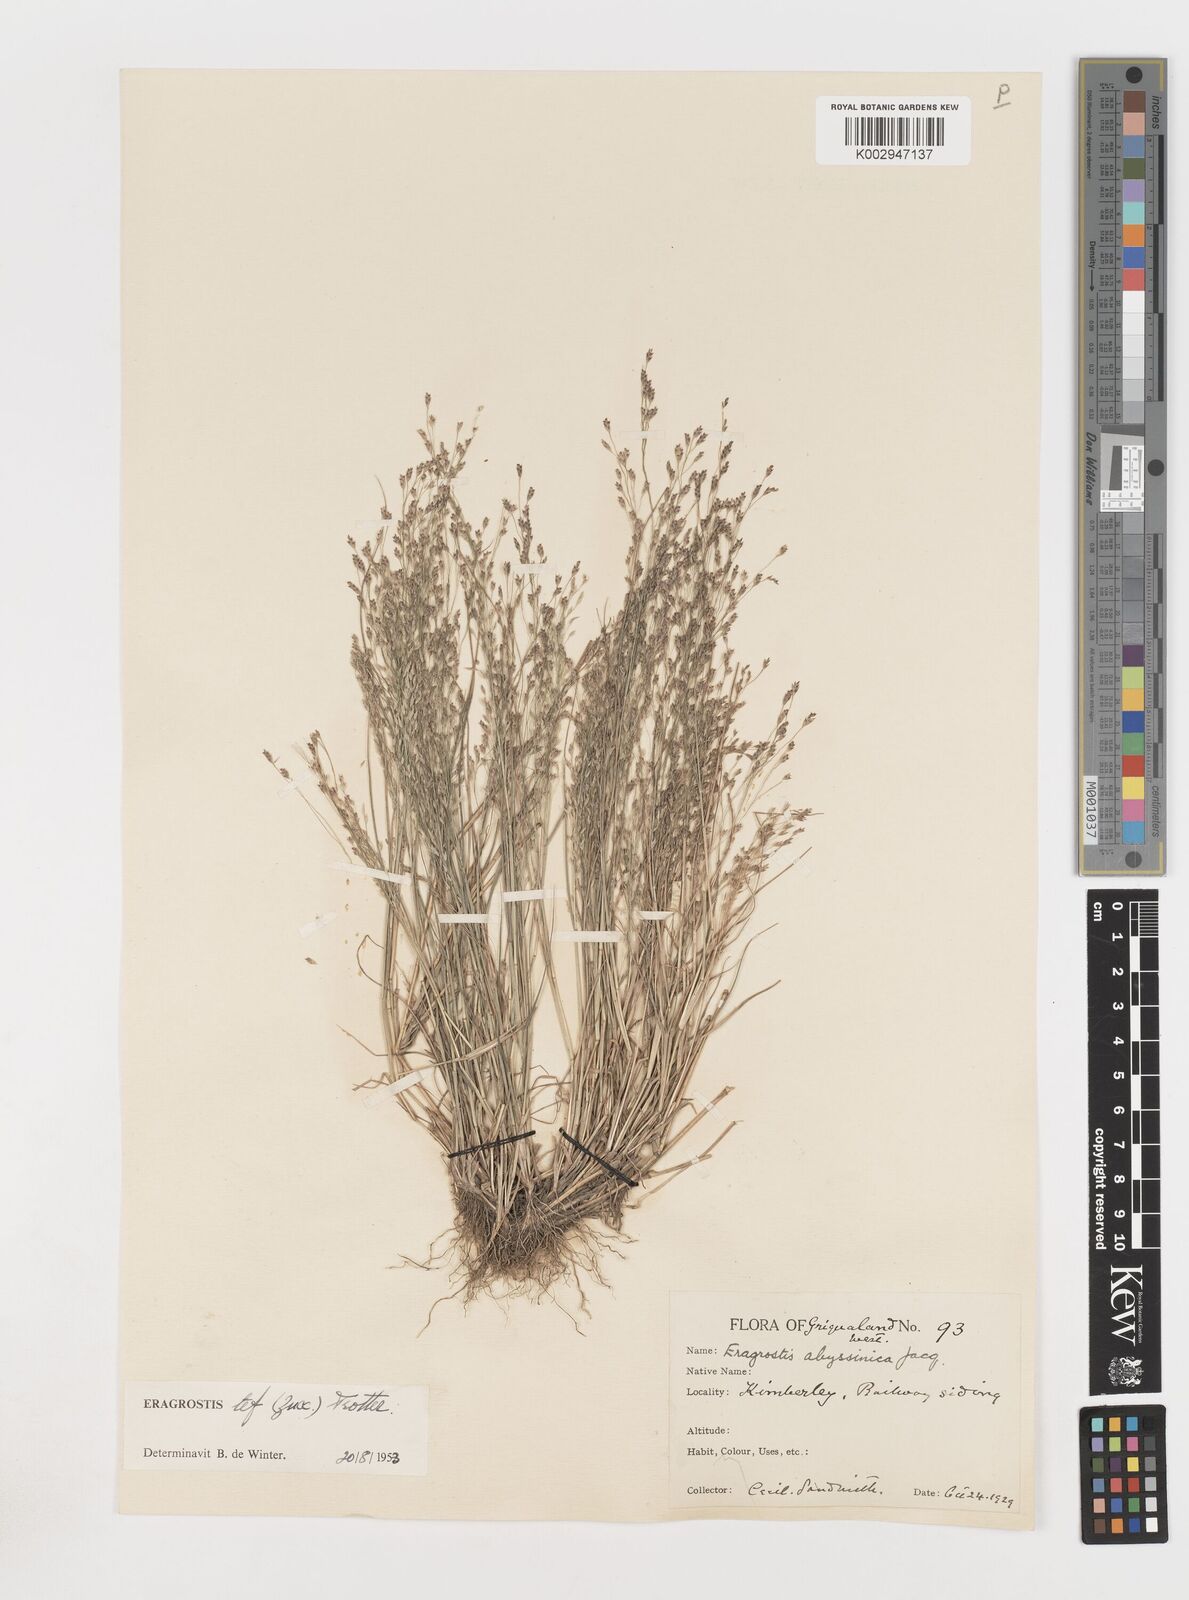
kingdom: Plantae
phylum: Tracheophyta
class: Liliopsida
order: Poales
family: Poaceae
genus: Eragrostis
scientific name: Eragrostis tef
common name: Teff
